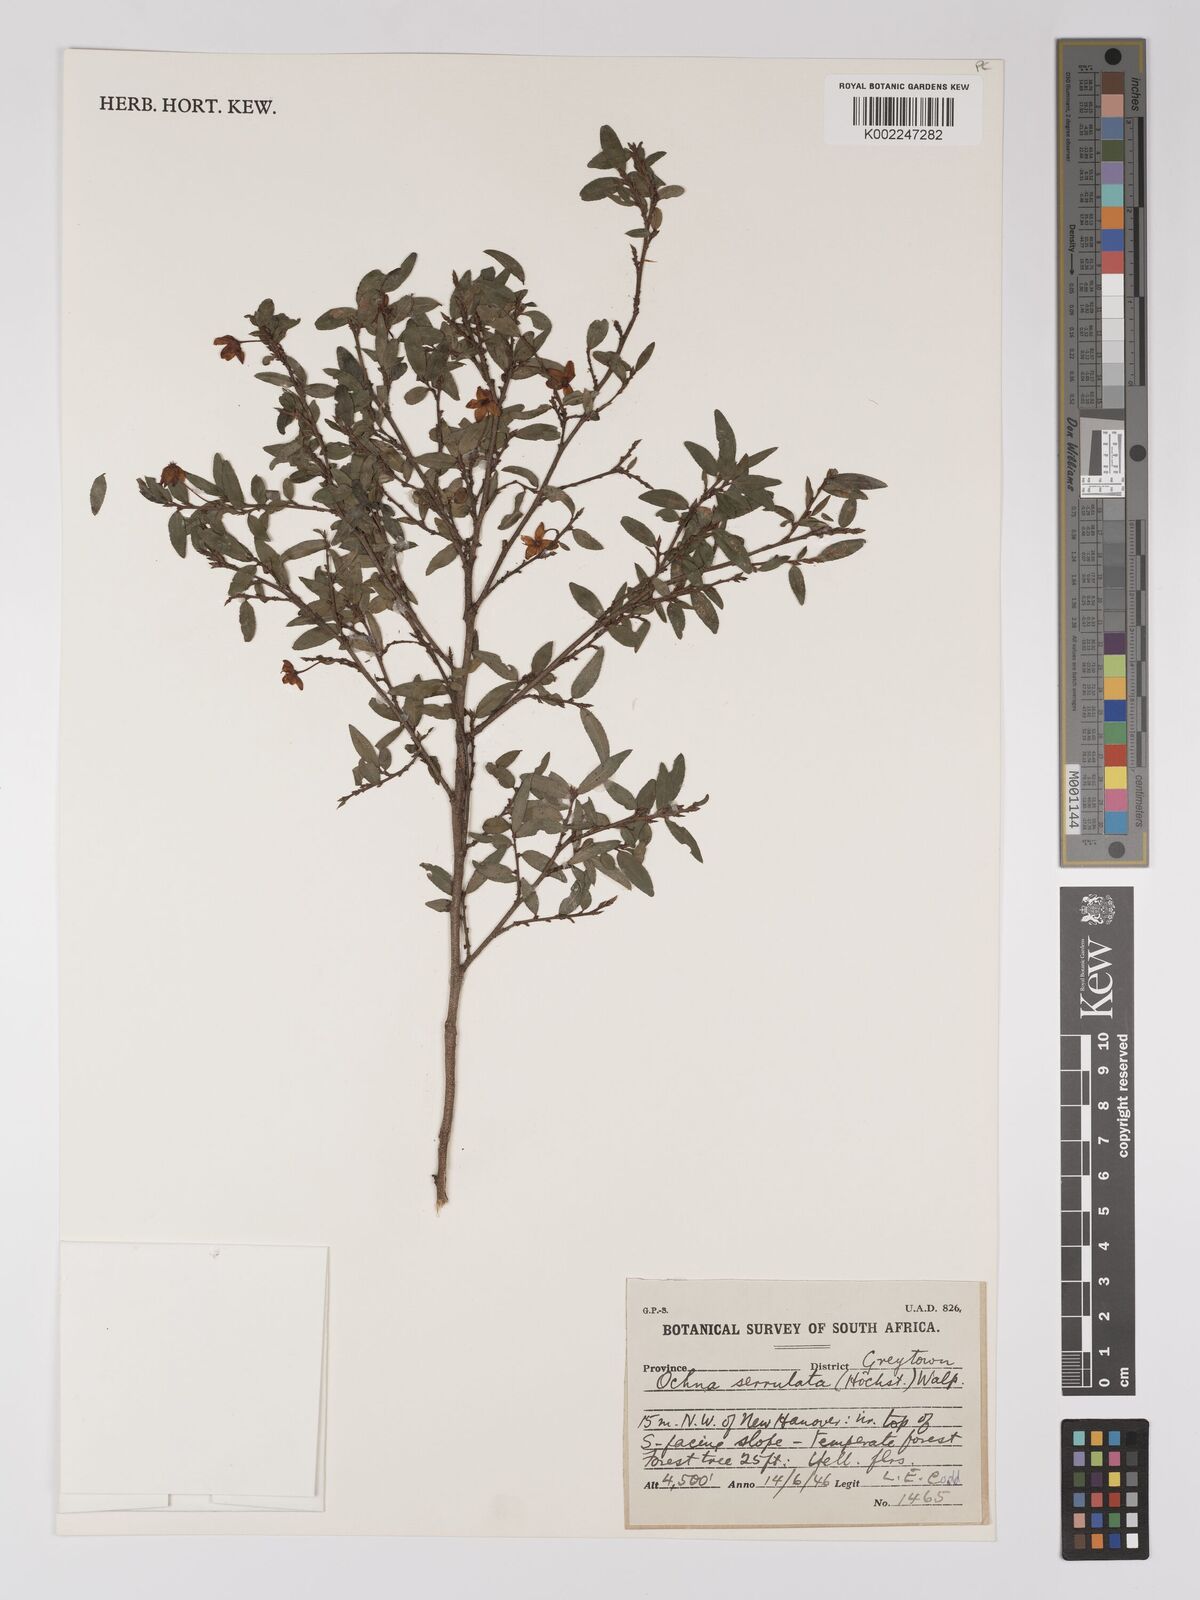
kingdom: Plantae
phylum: Tracheophyta
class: Magnoliopsida
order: Malpighiales
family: Ochnaceae
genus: Ochna
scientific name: Ochna gamostigmata
